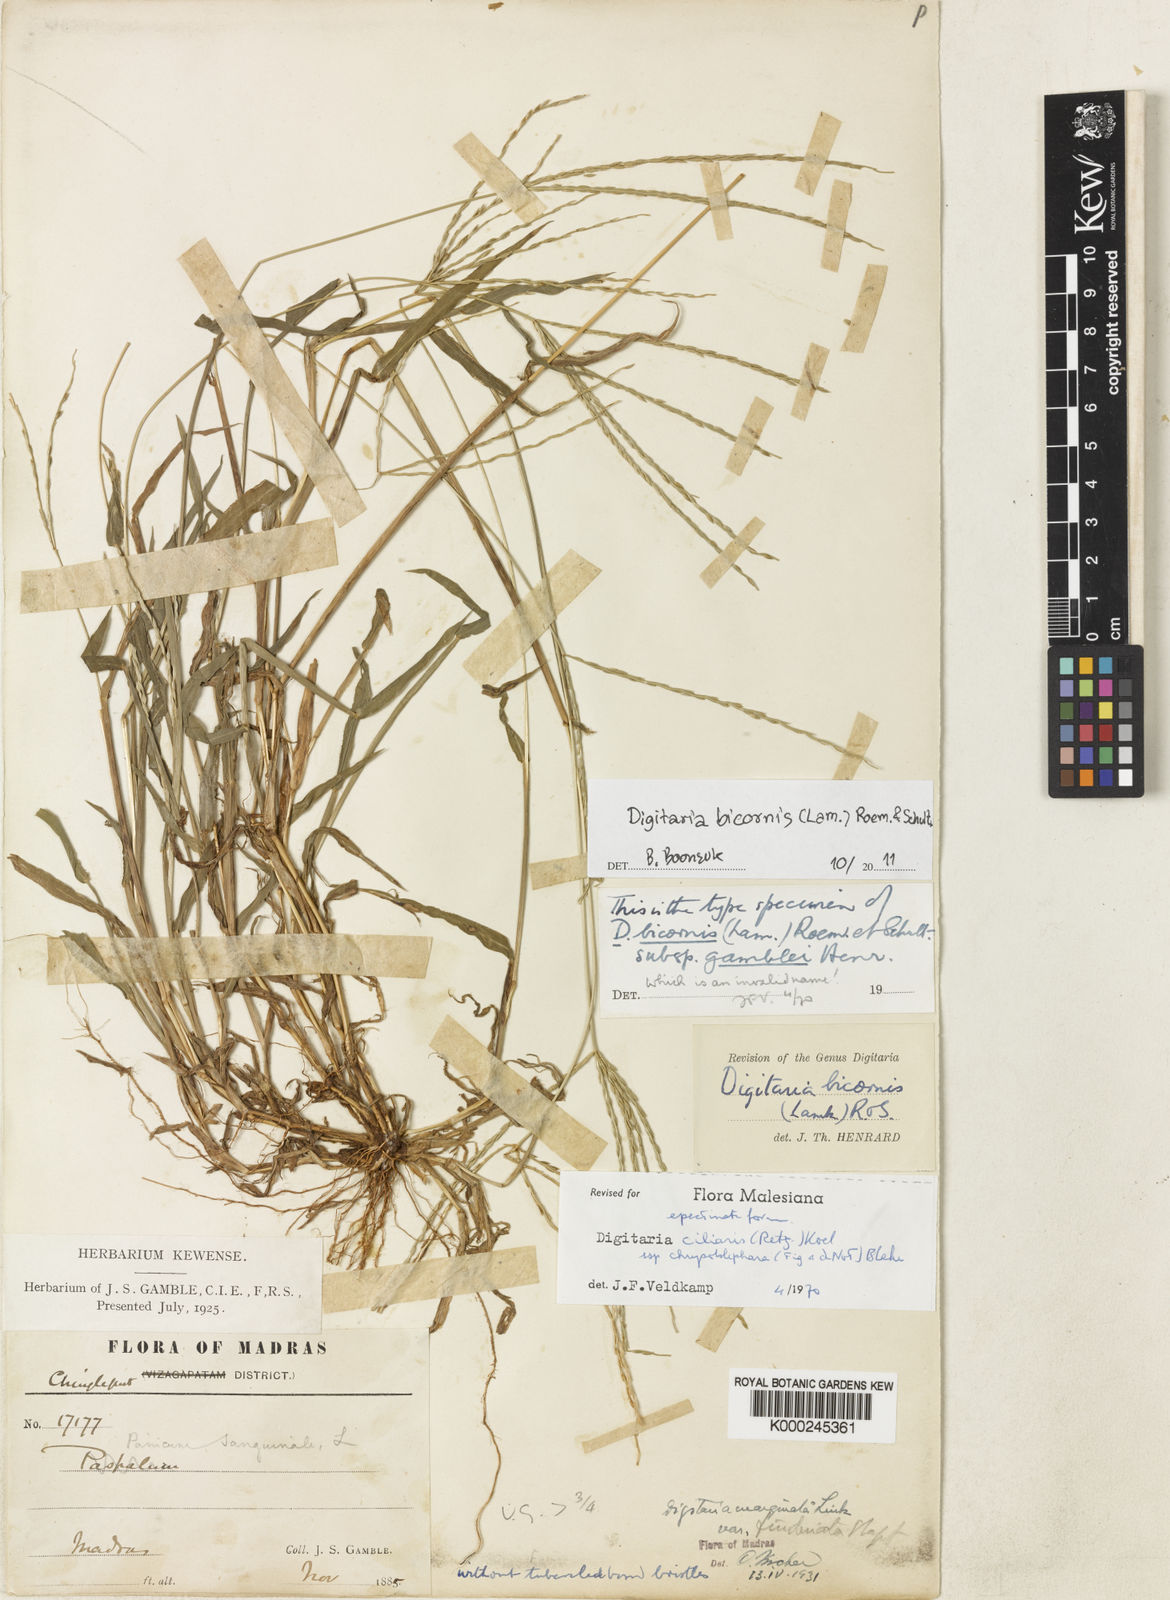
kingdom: Plantae
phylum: Tracheophyta
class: Liliopsida
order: Poales
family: Poaceae
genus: Digitaria
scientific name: Digitaria bicornis
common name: Asian crabgrass
